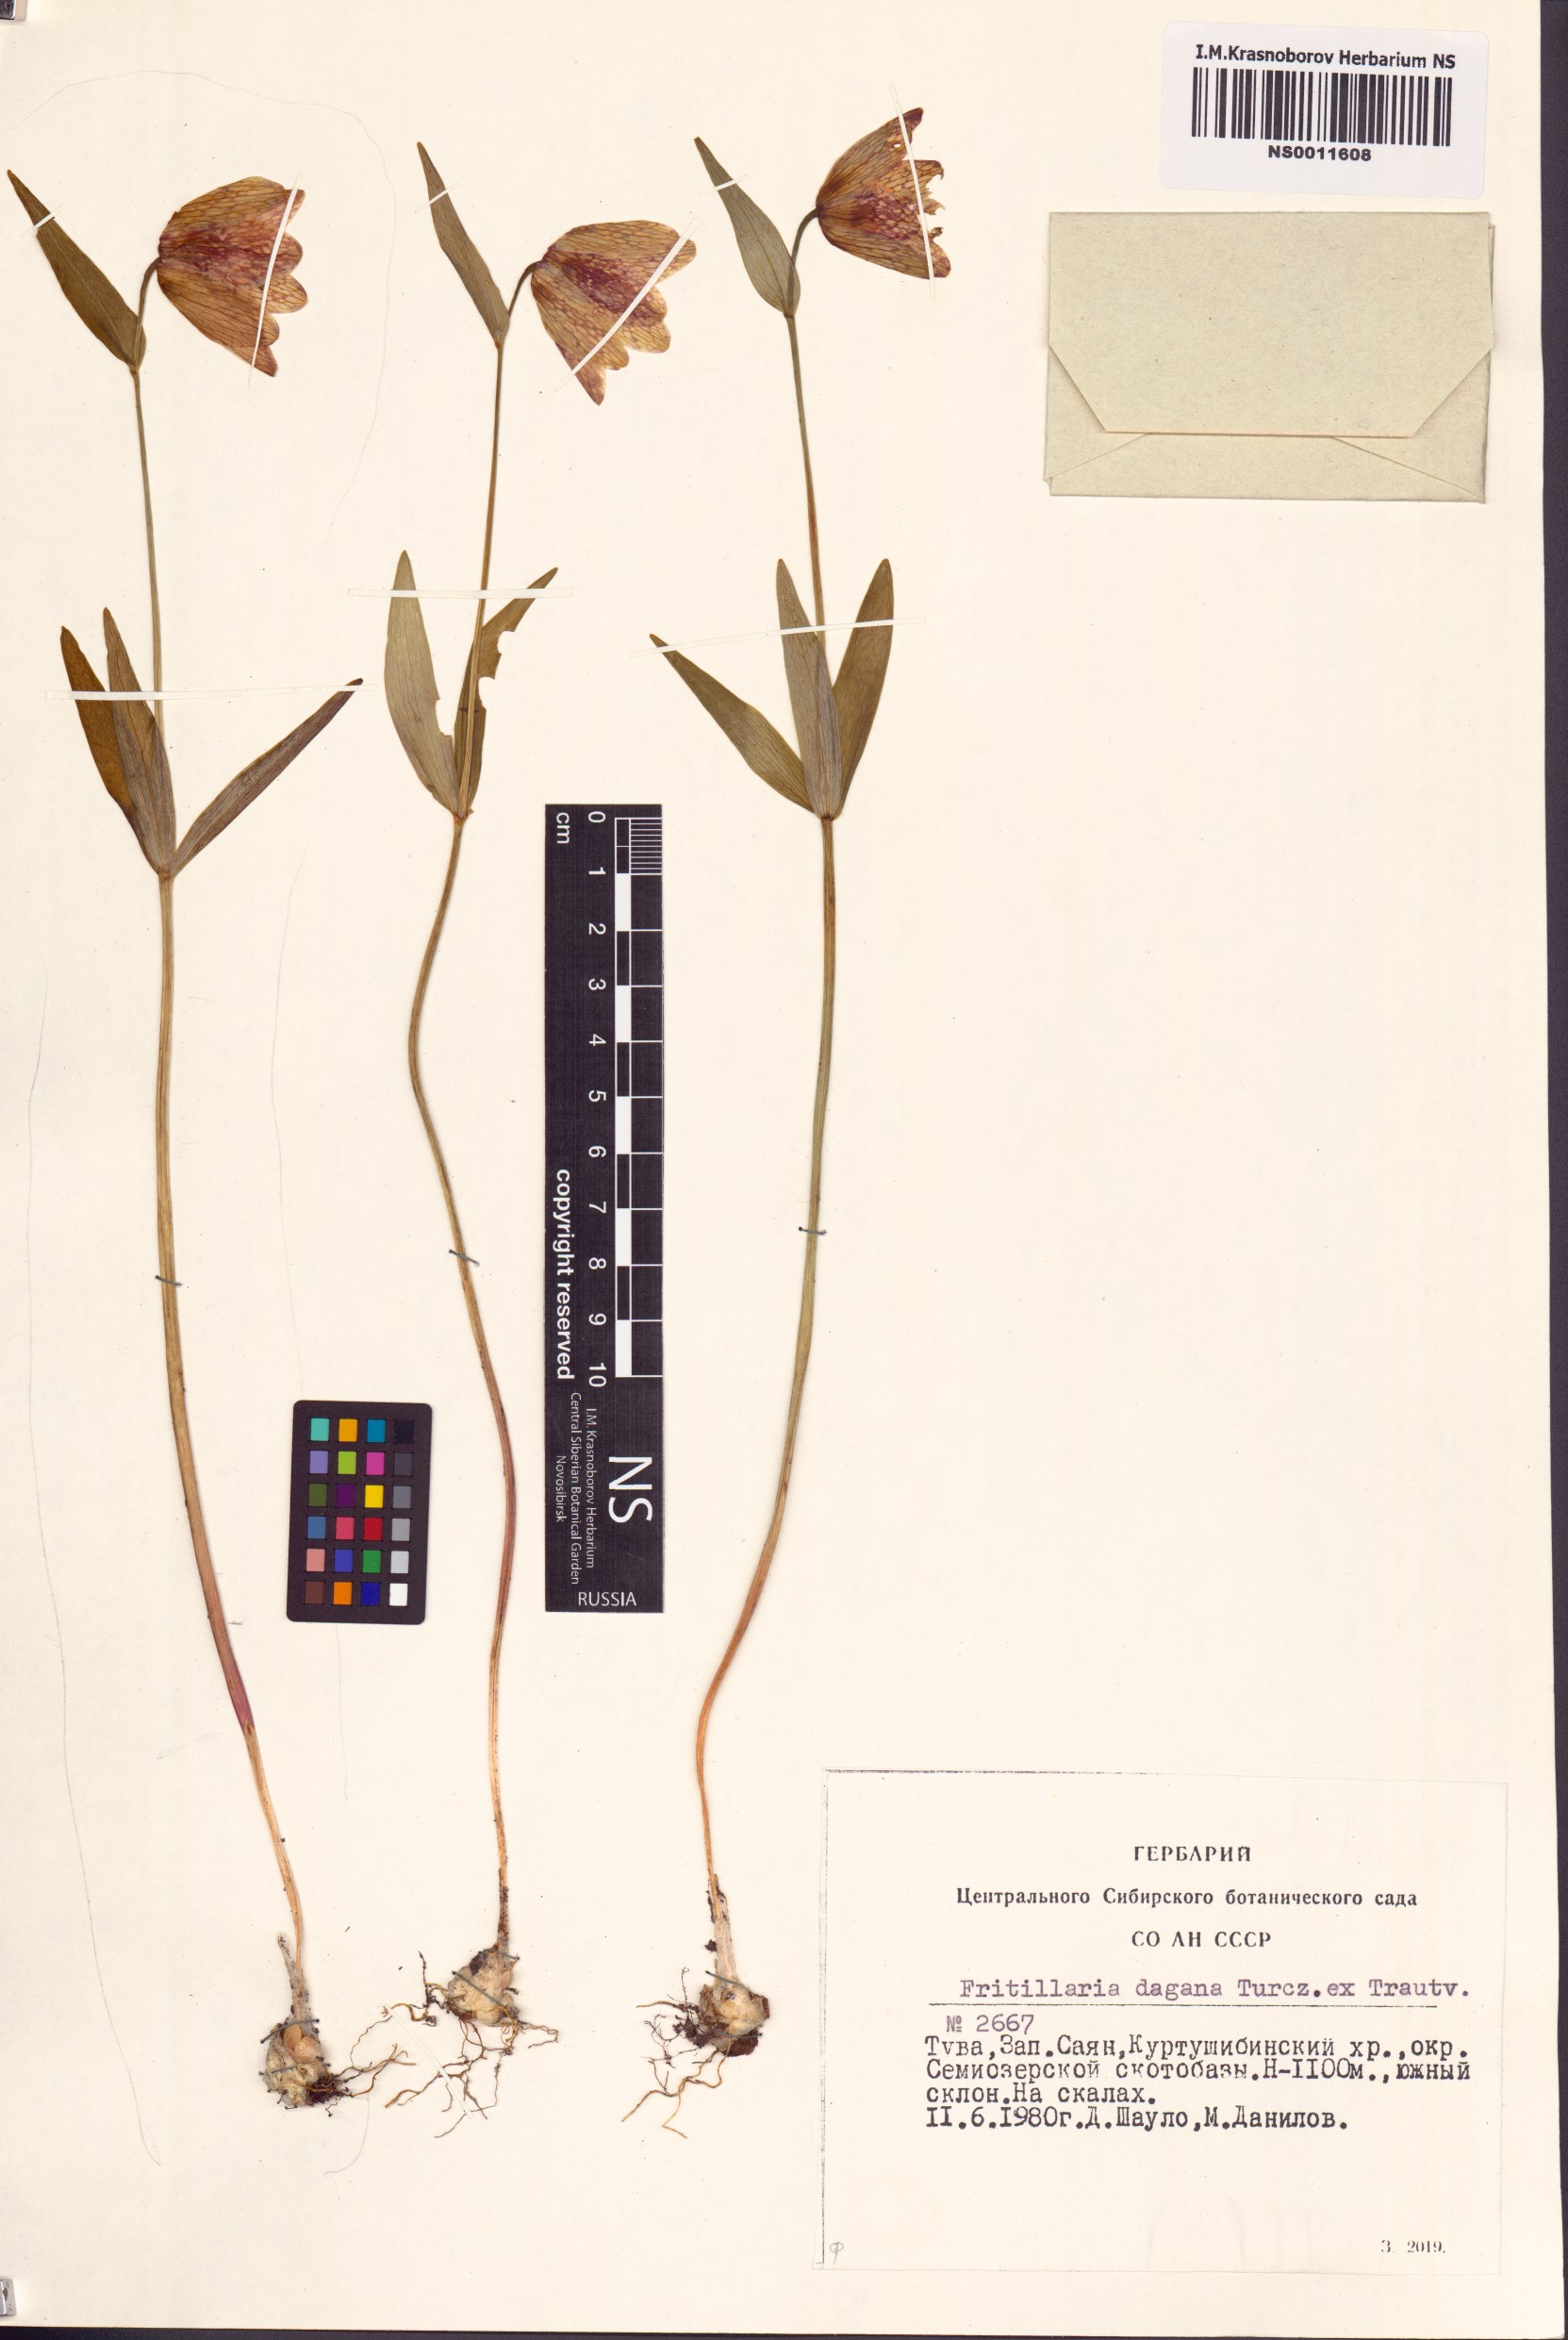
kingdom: Plantae
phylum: Tracheophyta
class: Liliopsida
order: Liliales
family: Liliaceae
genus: Fritillaria
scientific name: Fritillaria dagana
